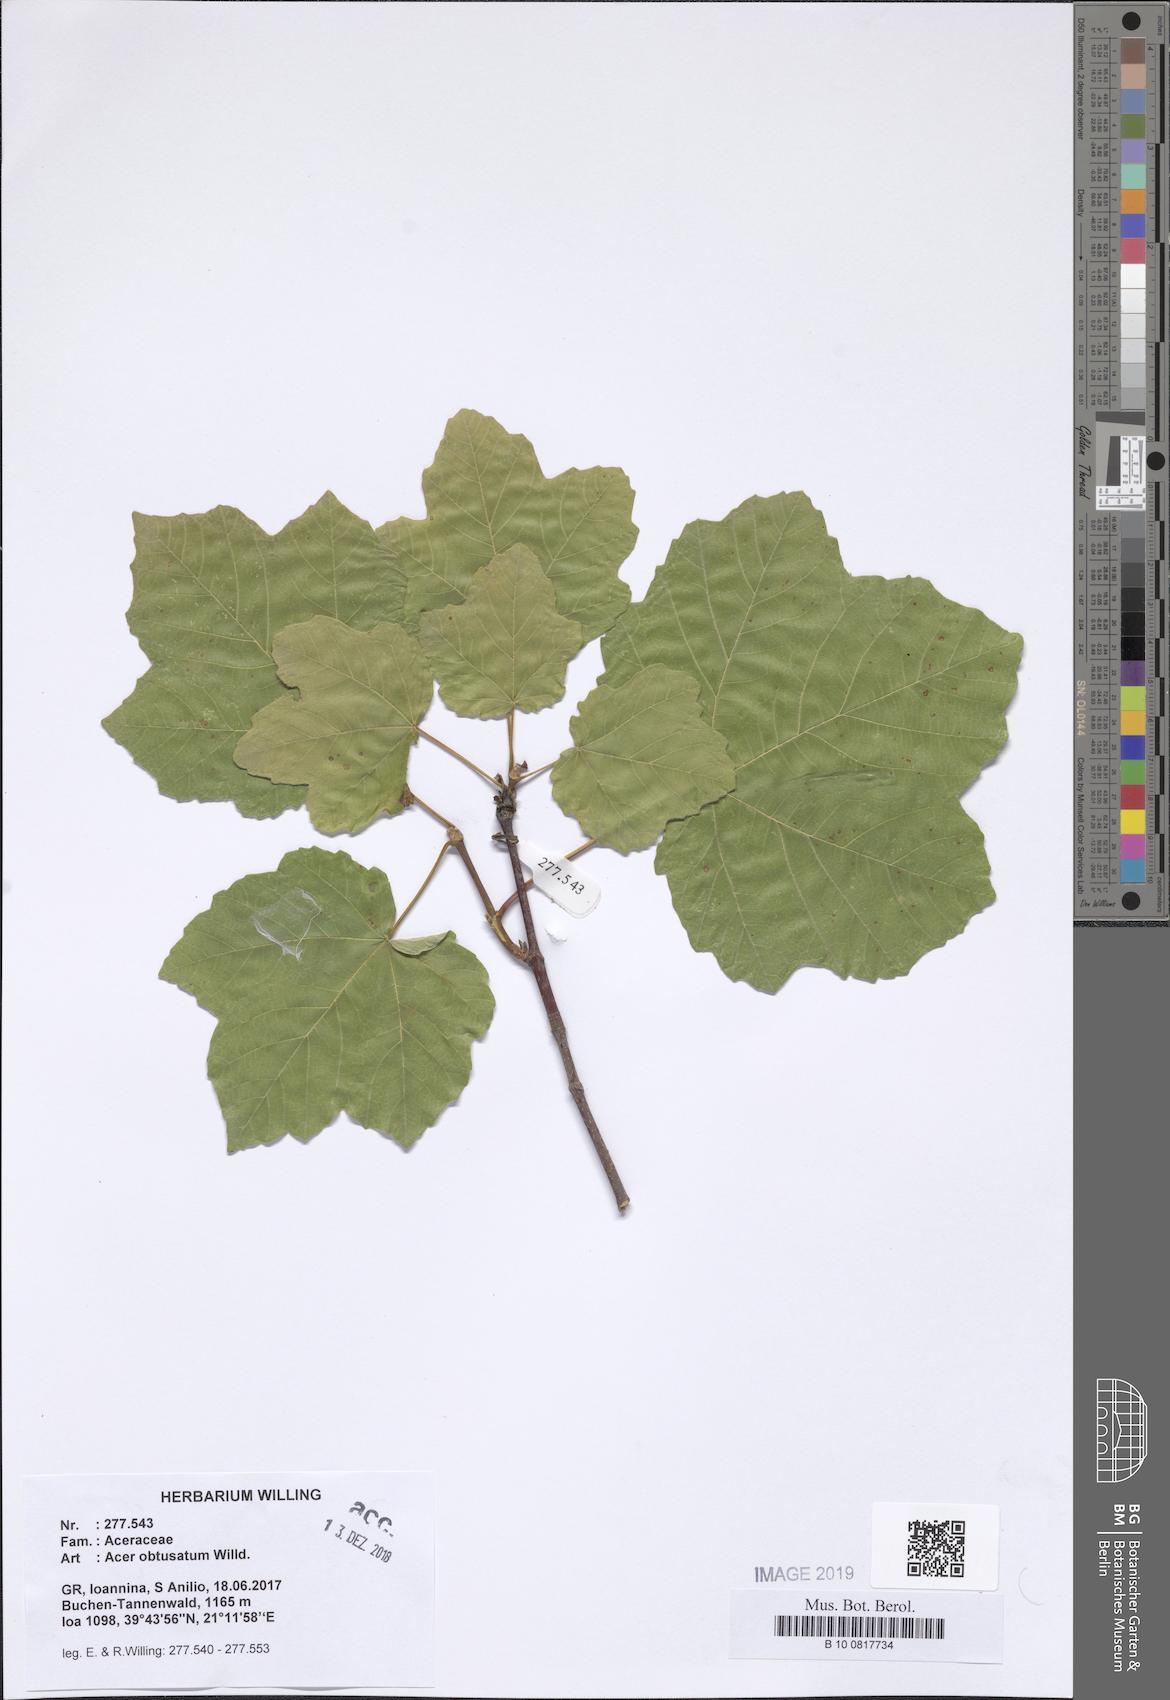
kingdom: Plantae
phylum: Tracheophyta
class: Magnoliopsida
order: Sapindales
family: Sapindaceae
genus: Acer
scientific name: Acer obtusatum
